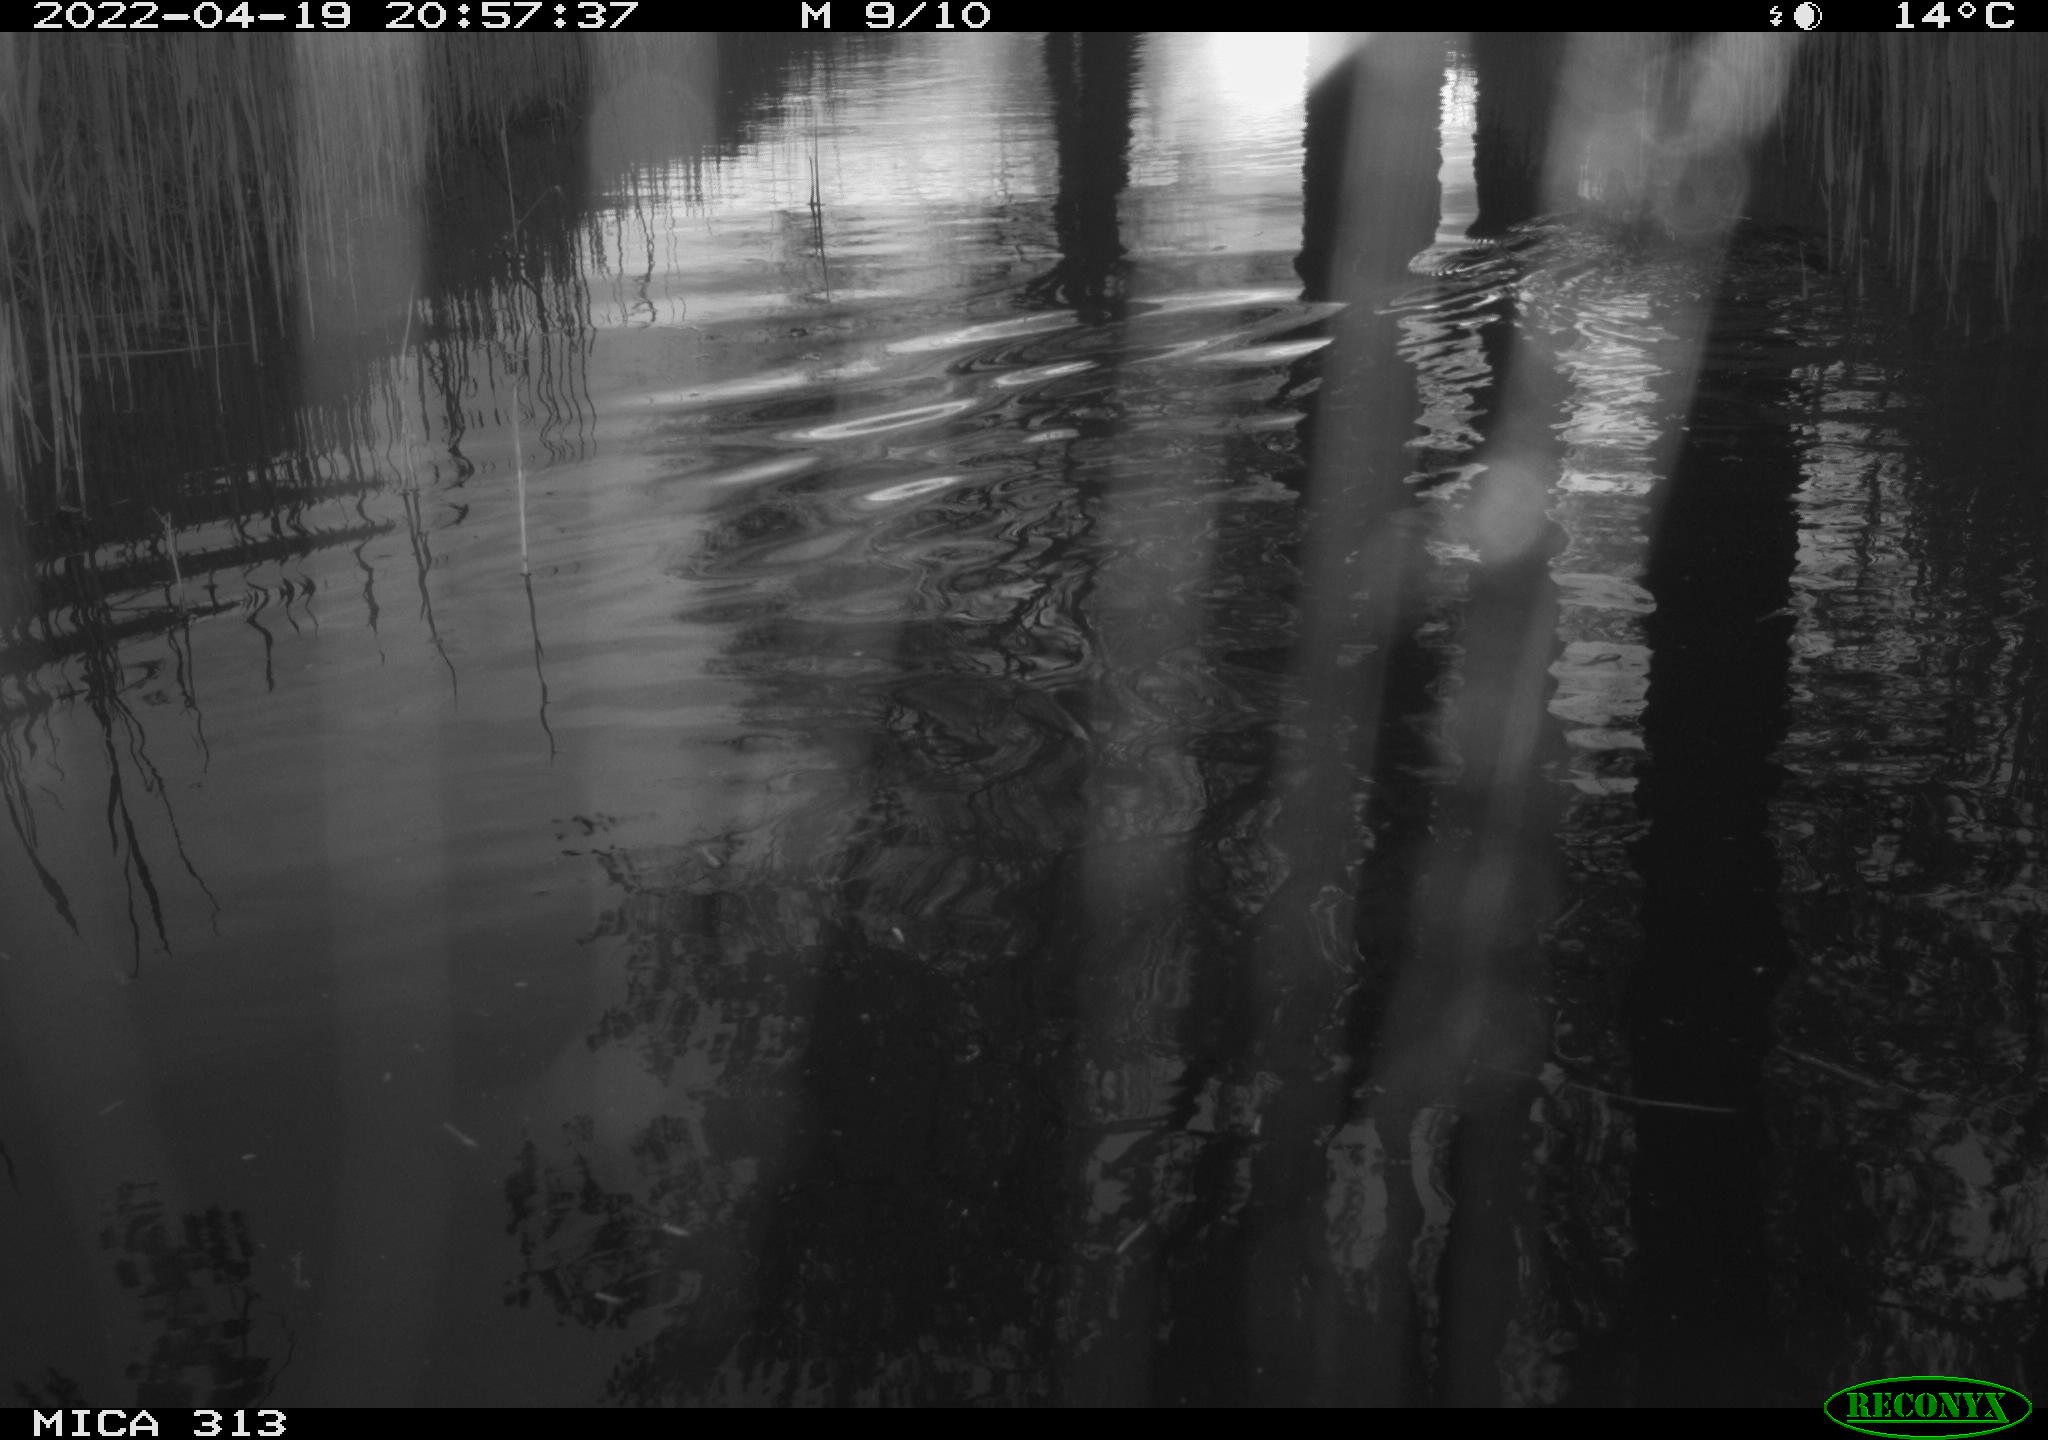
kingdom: Animalia
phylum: Chordata
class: Aves
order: Gruiformes
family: Rallidae
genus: Gallinula
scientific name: Gallinula chloropus
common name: Common moorhen
